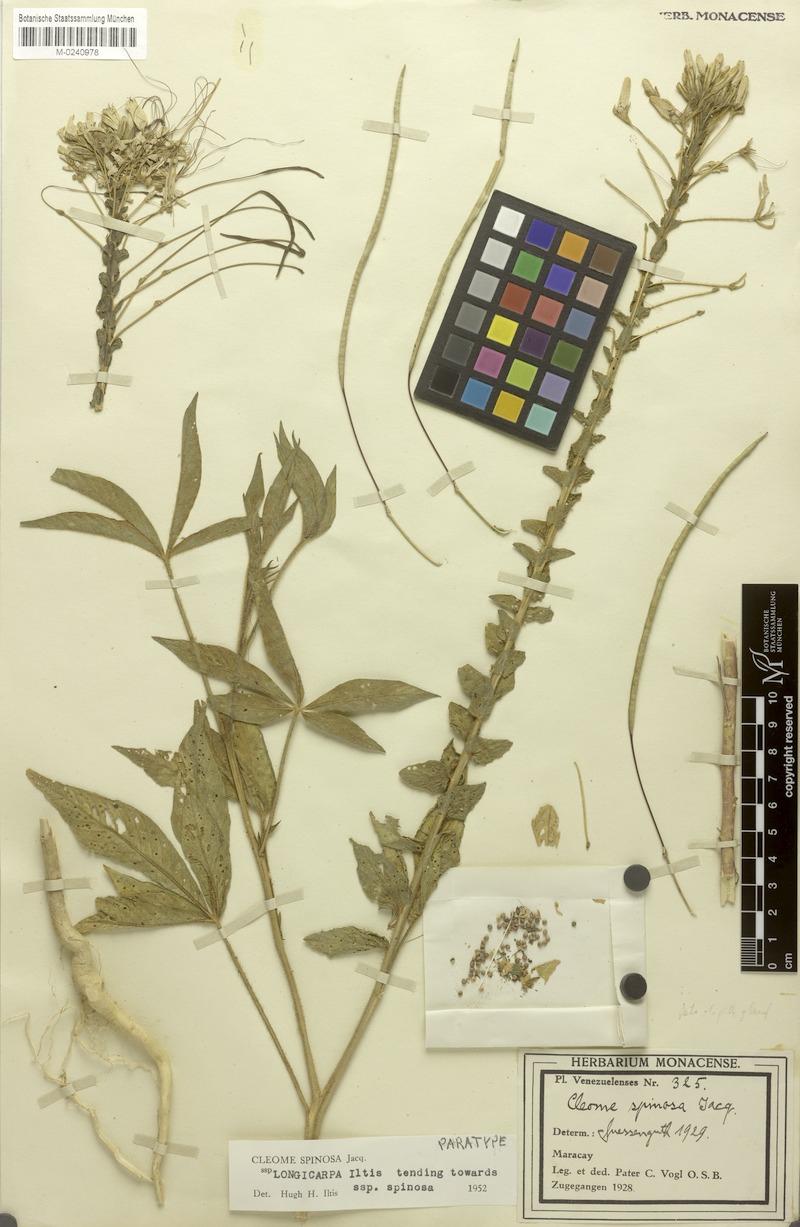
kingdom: Plantae
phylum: Tracheophyta
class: Magnoliopsida
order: Brassicales
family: Cleomaceae
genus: Tarenaya
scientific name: Tarenaya spinosa
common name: Spiny spiderflower
